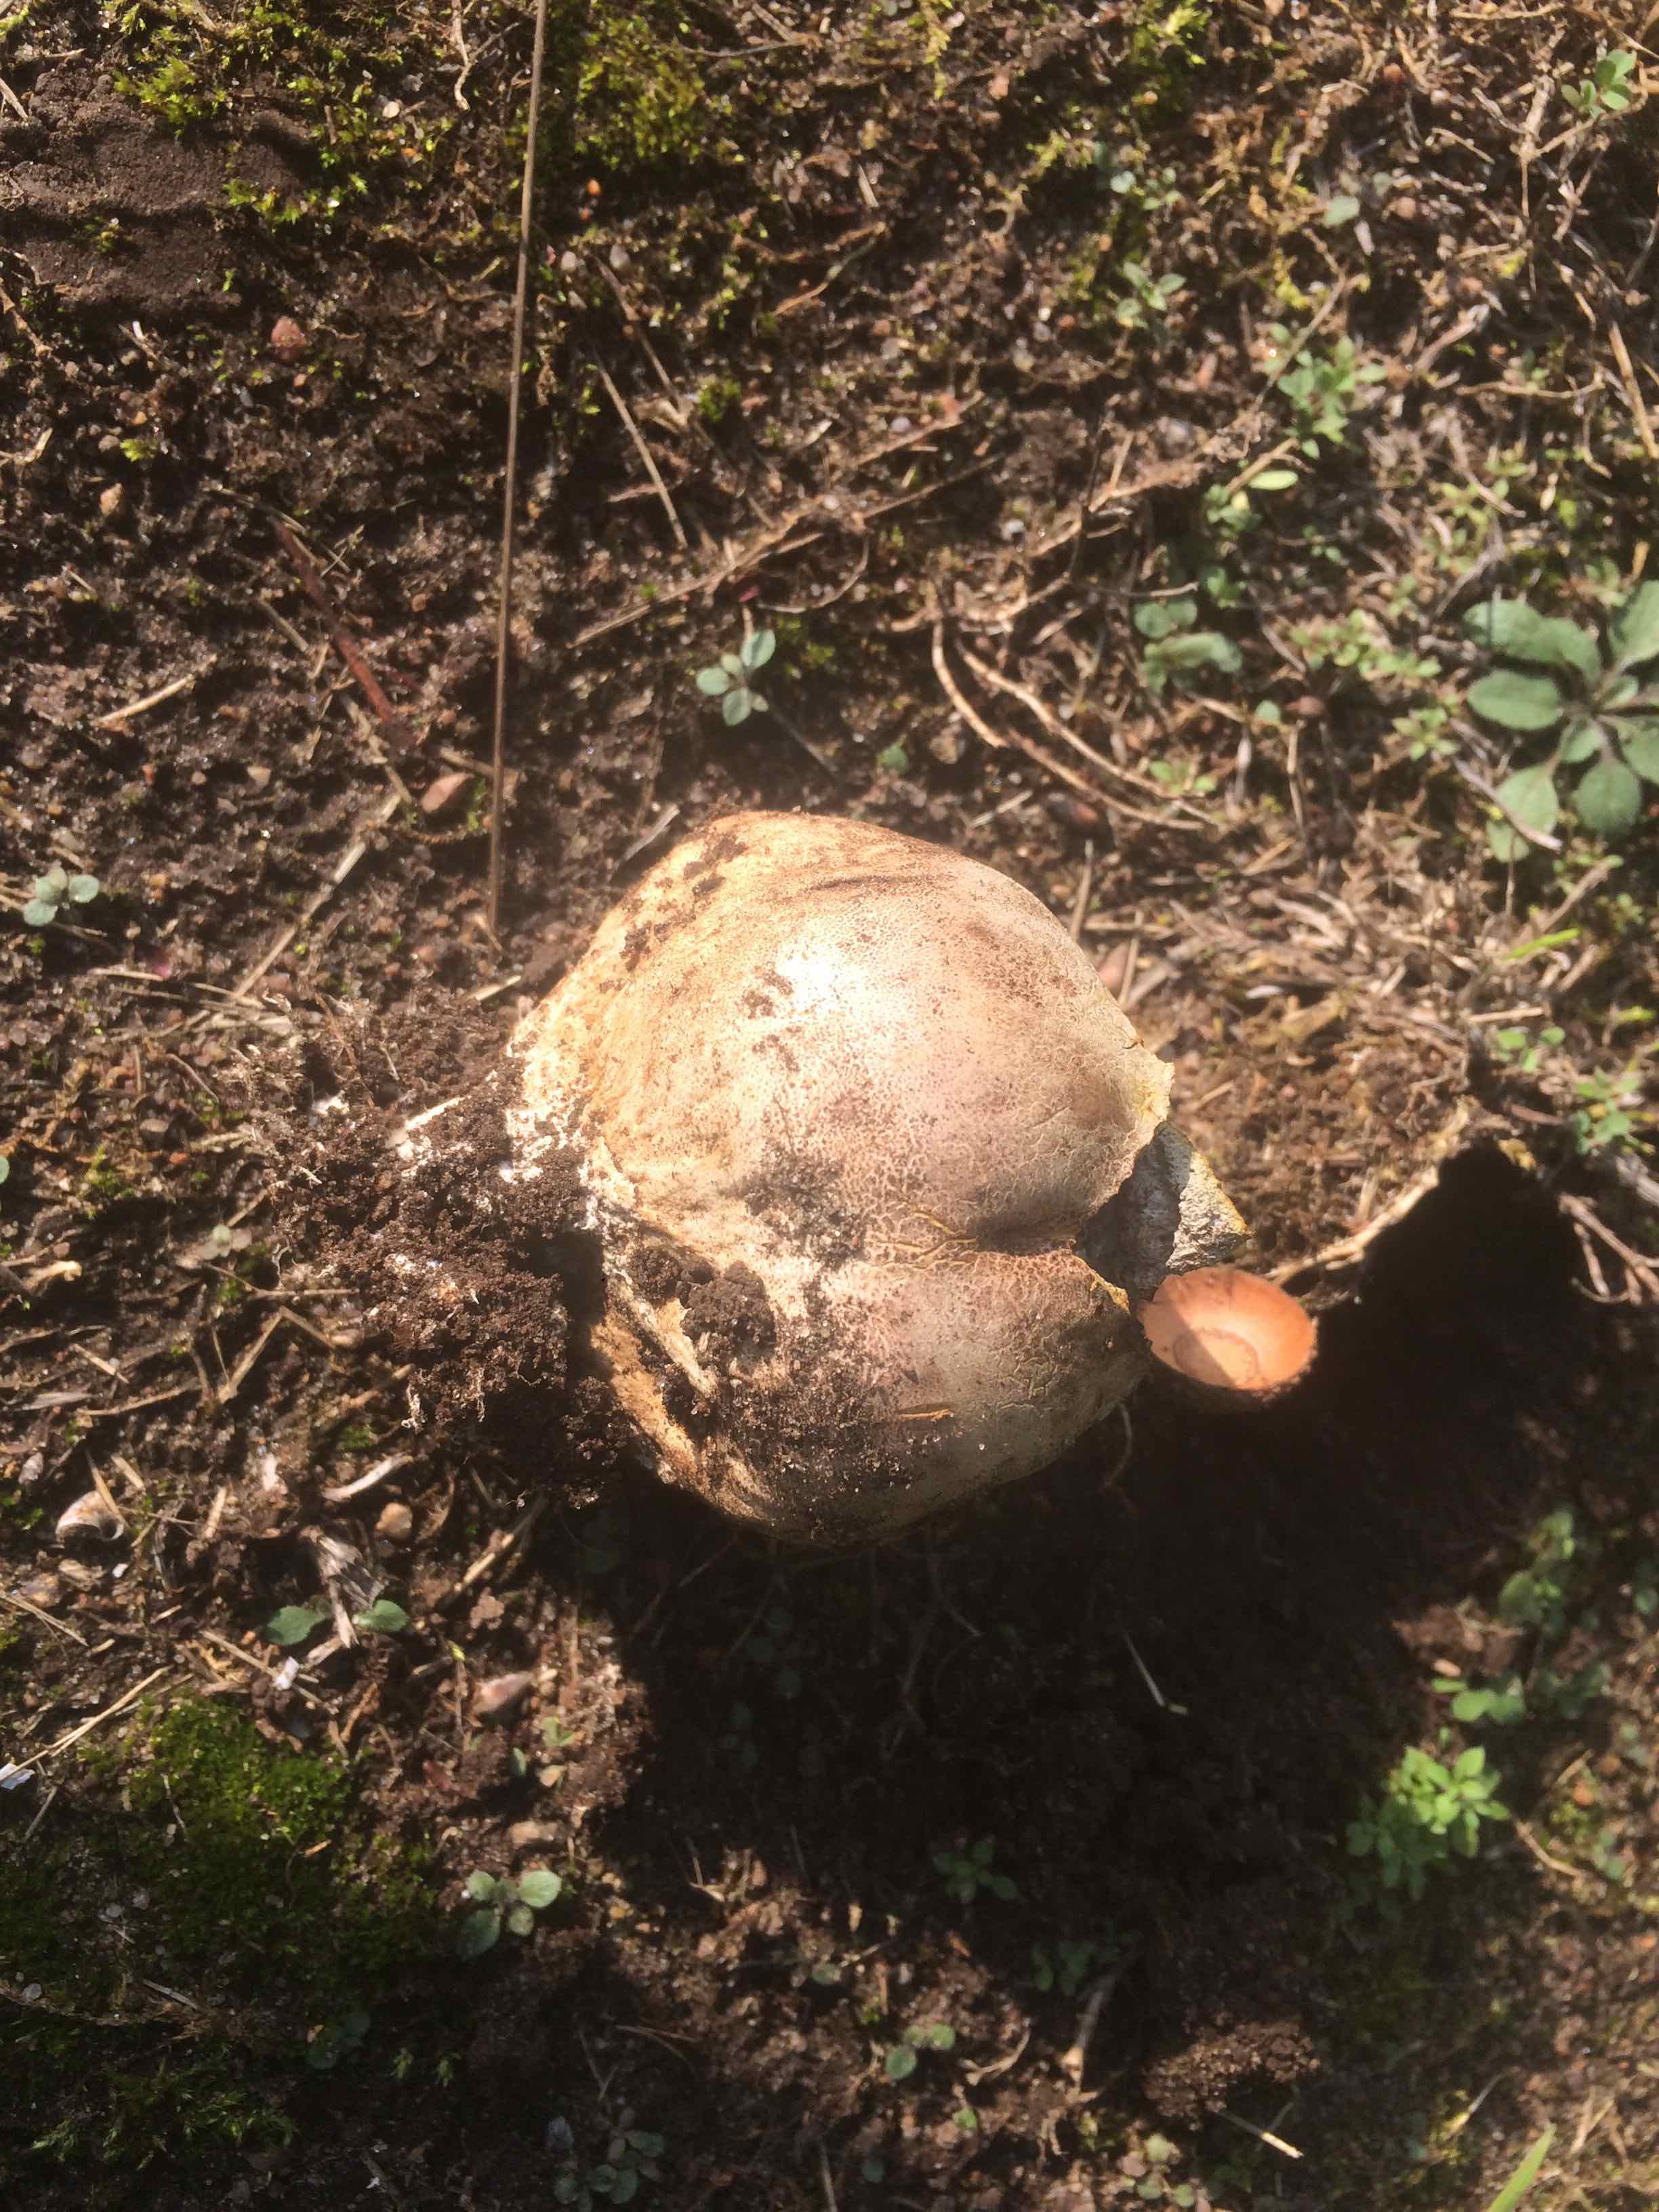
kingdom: Fungi
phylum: Basidiomycota
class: Agaricomycetes
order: Boletales
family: Sclerodermataceae
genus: Scleroderma
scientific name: Scleroderma citrinum
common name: almindelig bruskbold
